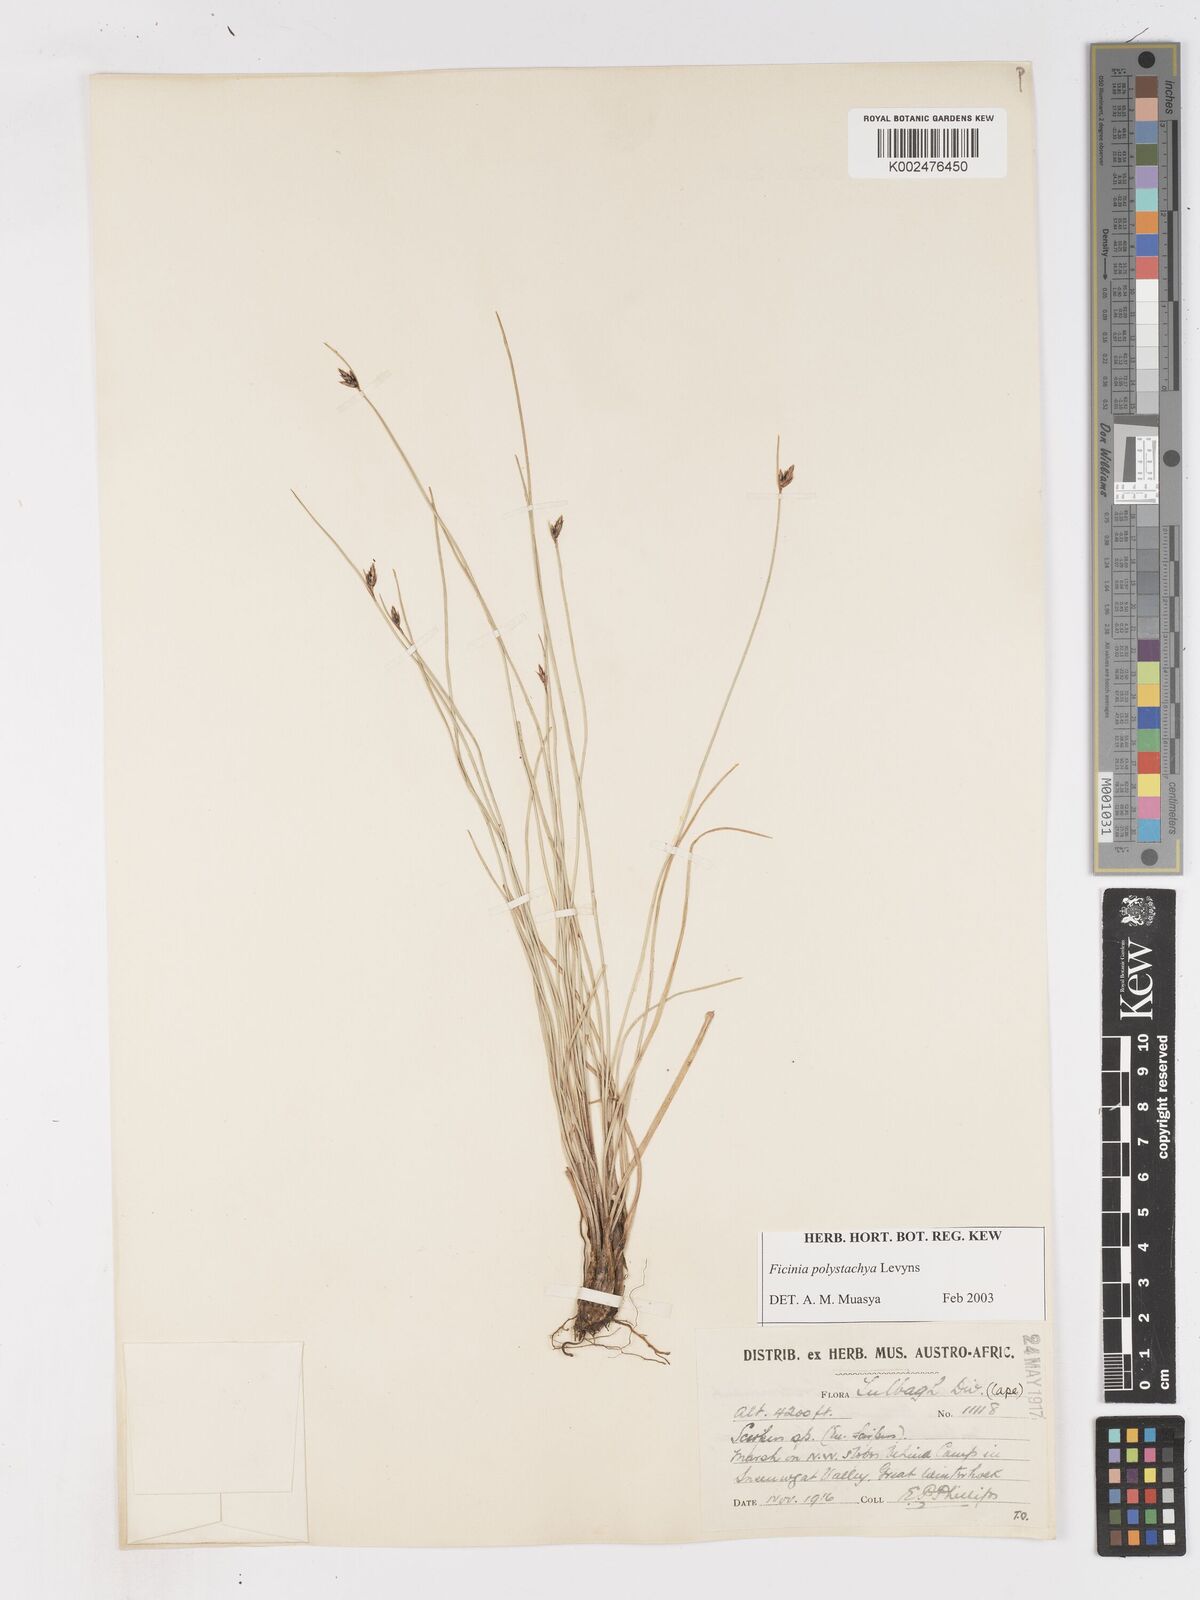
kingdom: Plantae
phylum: Tracheophyta
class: Liliopsida
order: Poales
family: Cyperaceae
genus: Ficinia
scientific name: Ficinia polystachya
